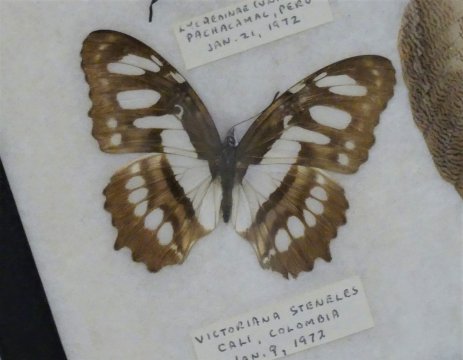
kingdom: Animalia
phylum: Arthropoda
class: Insecta
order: Lepidoptera
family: Nymphalidae
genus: Siproeta
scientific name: Siproeta stelenes
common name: Malachite
